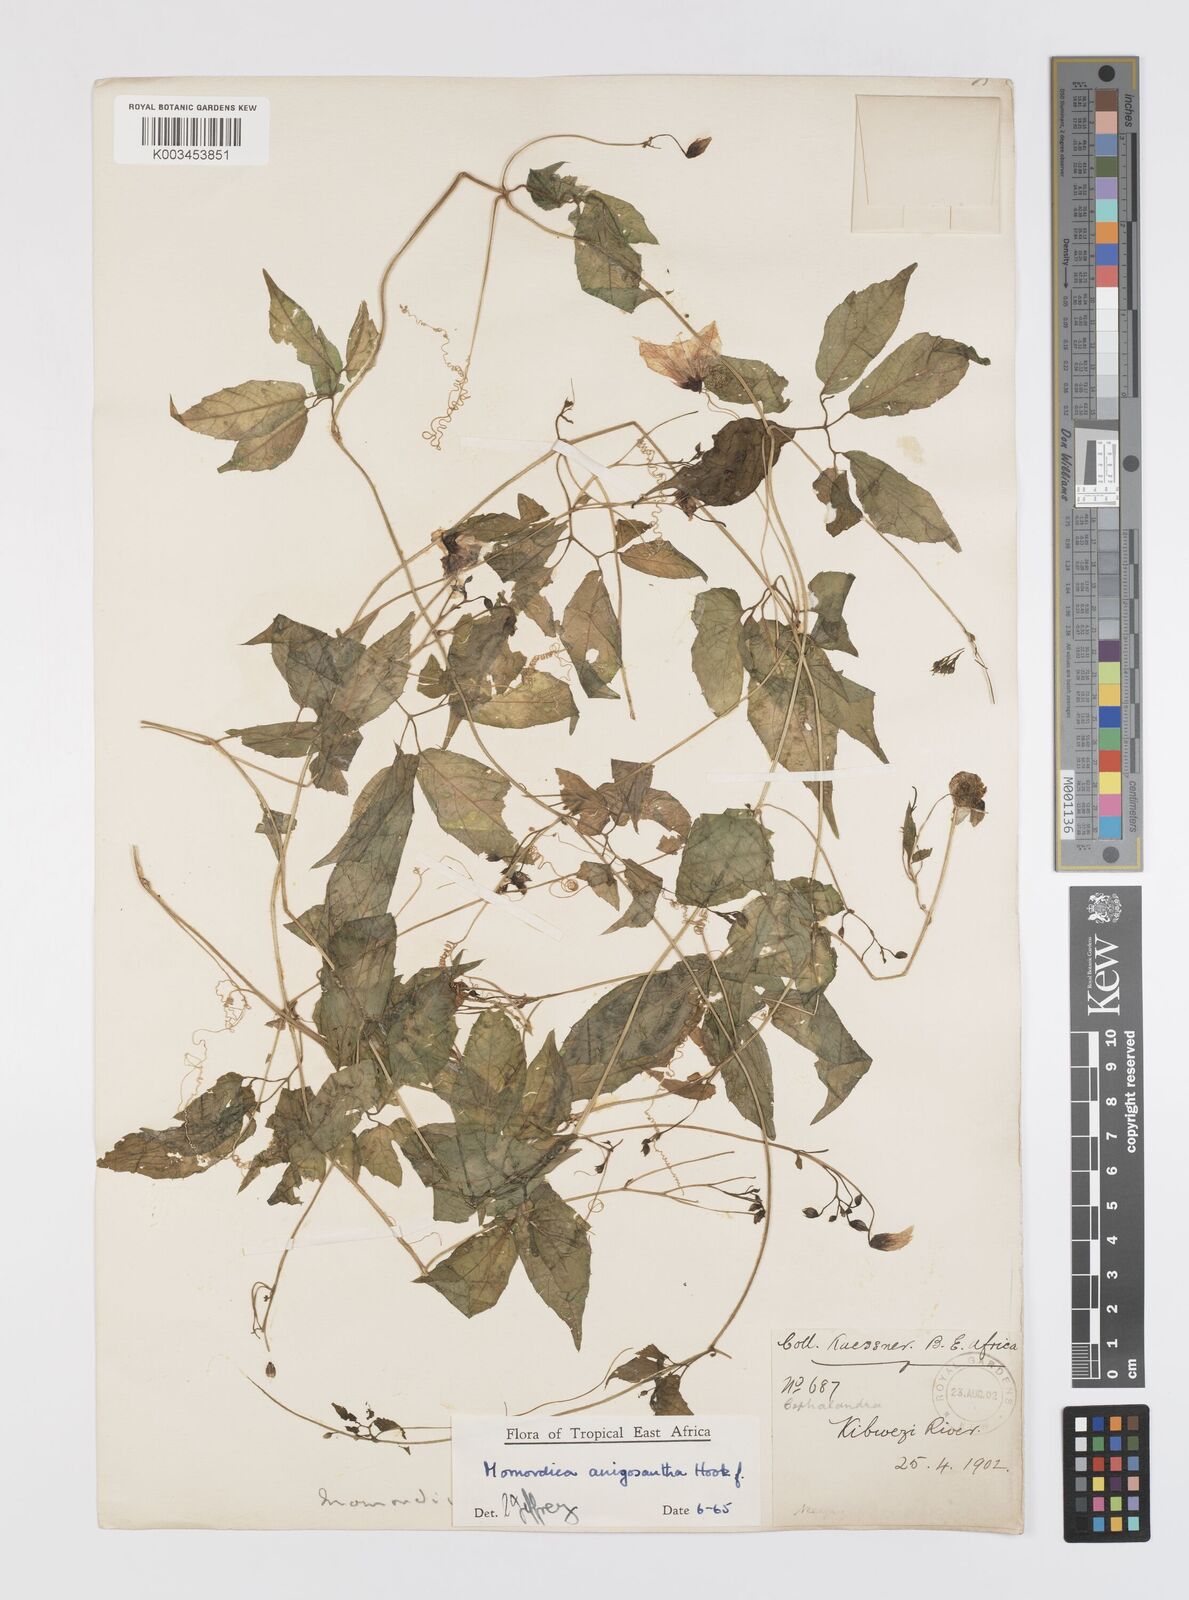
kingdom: Plantae
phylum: Tracheophyta
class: Magnoliopsida
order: Cucurbitales
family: Cucurbitaceae
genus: Momordica
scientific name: Momordica anigosantha
